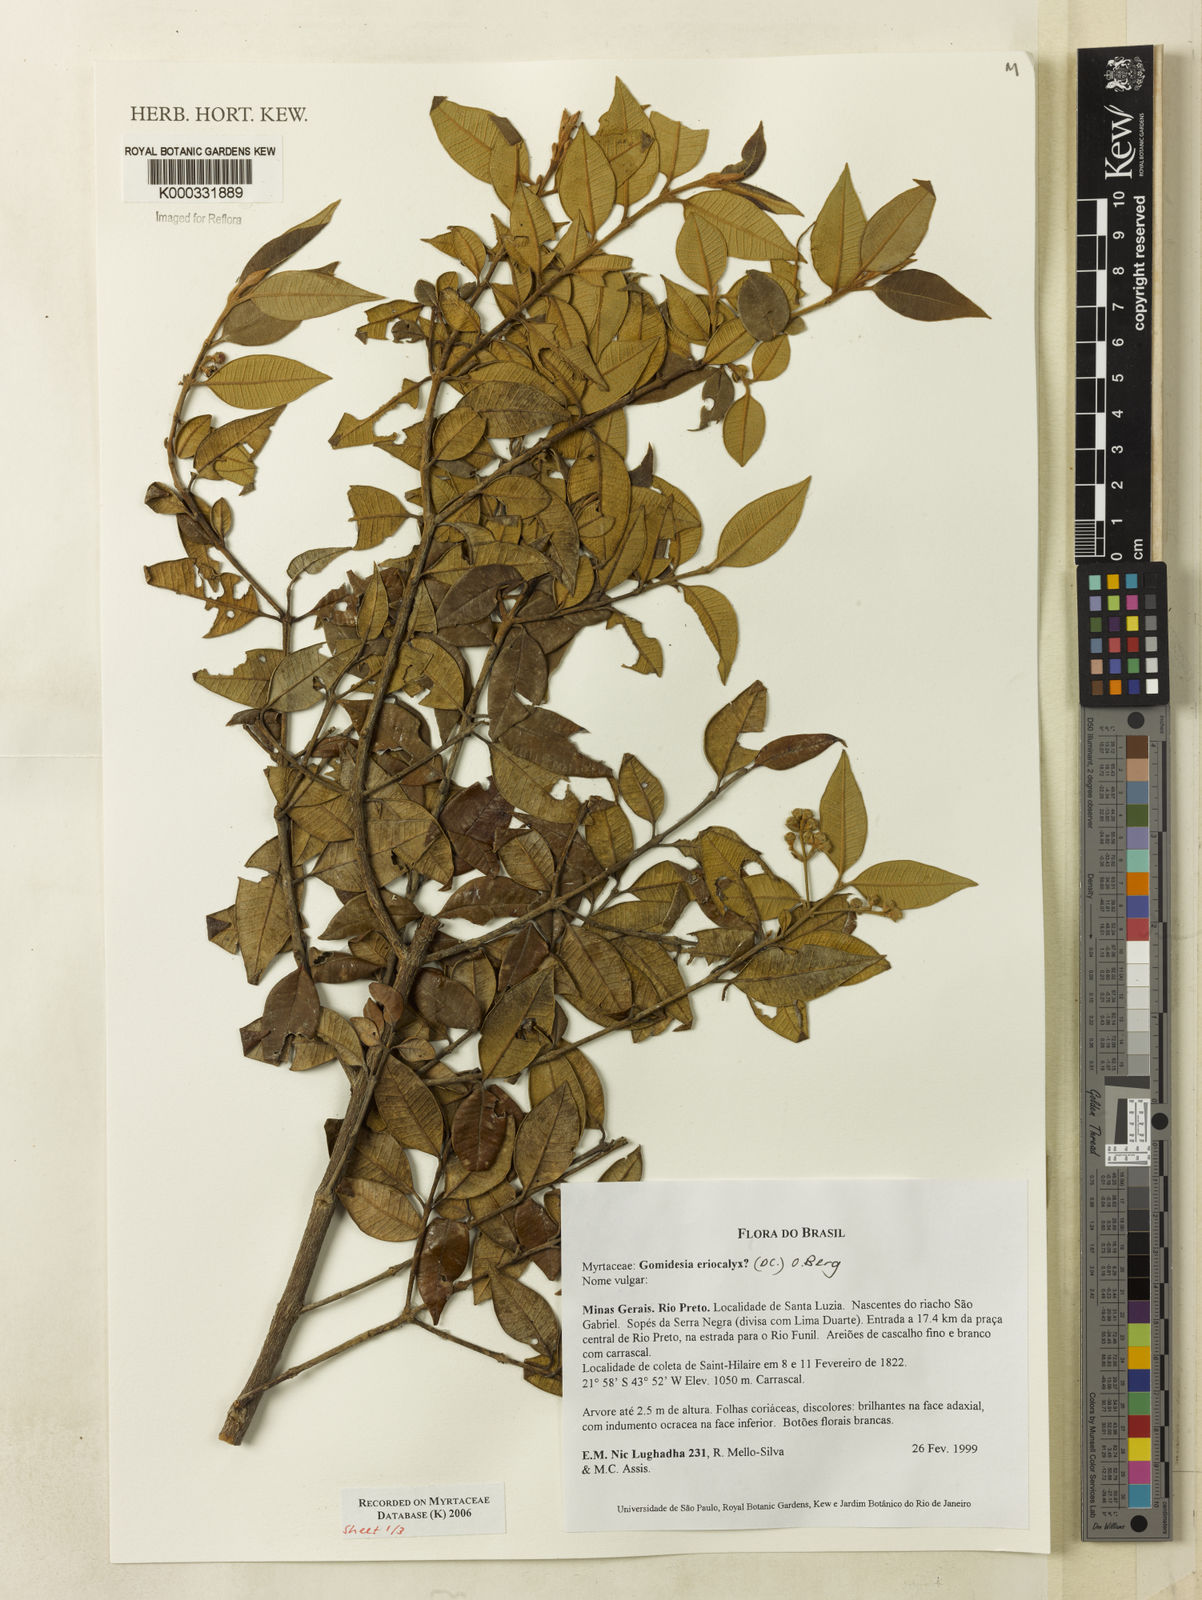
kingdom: Plantae
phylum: Tracheophyta
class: Magnoliopsida
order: Myrtales
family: Myrtaceae
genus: Myrcia
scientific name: Myrcia eriocalyx
